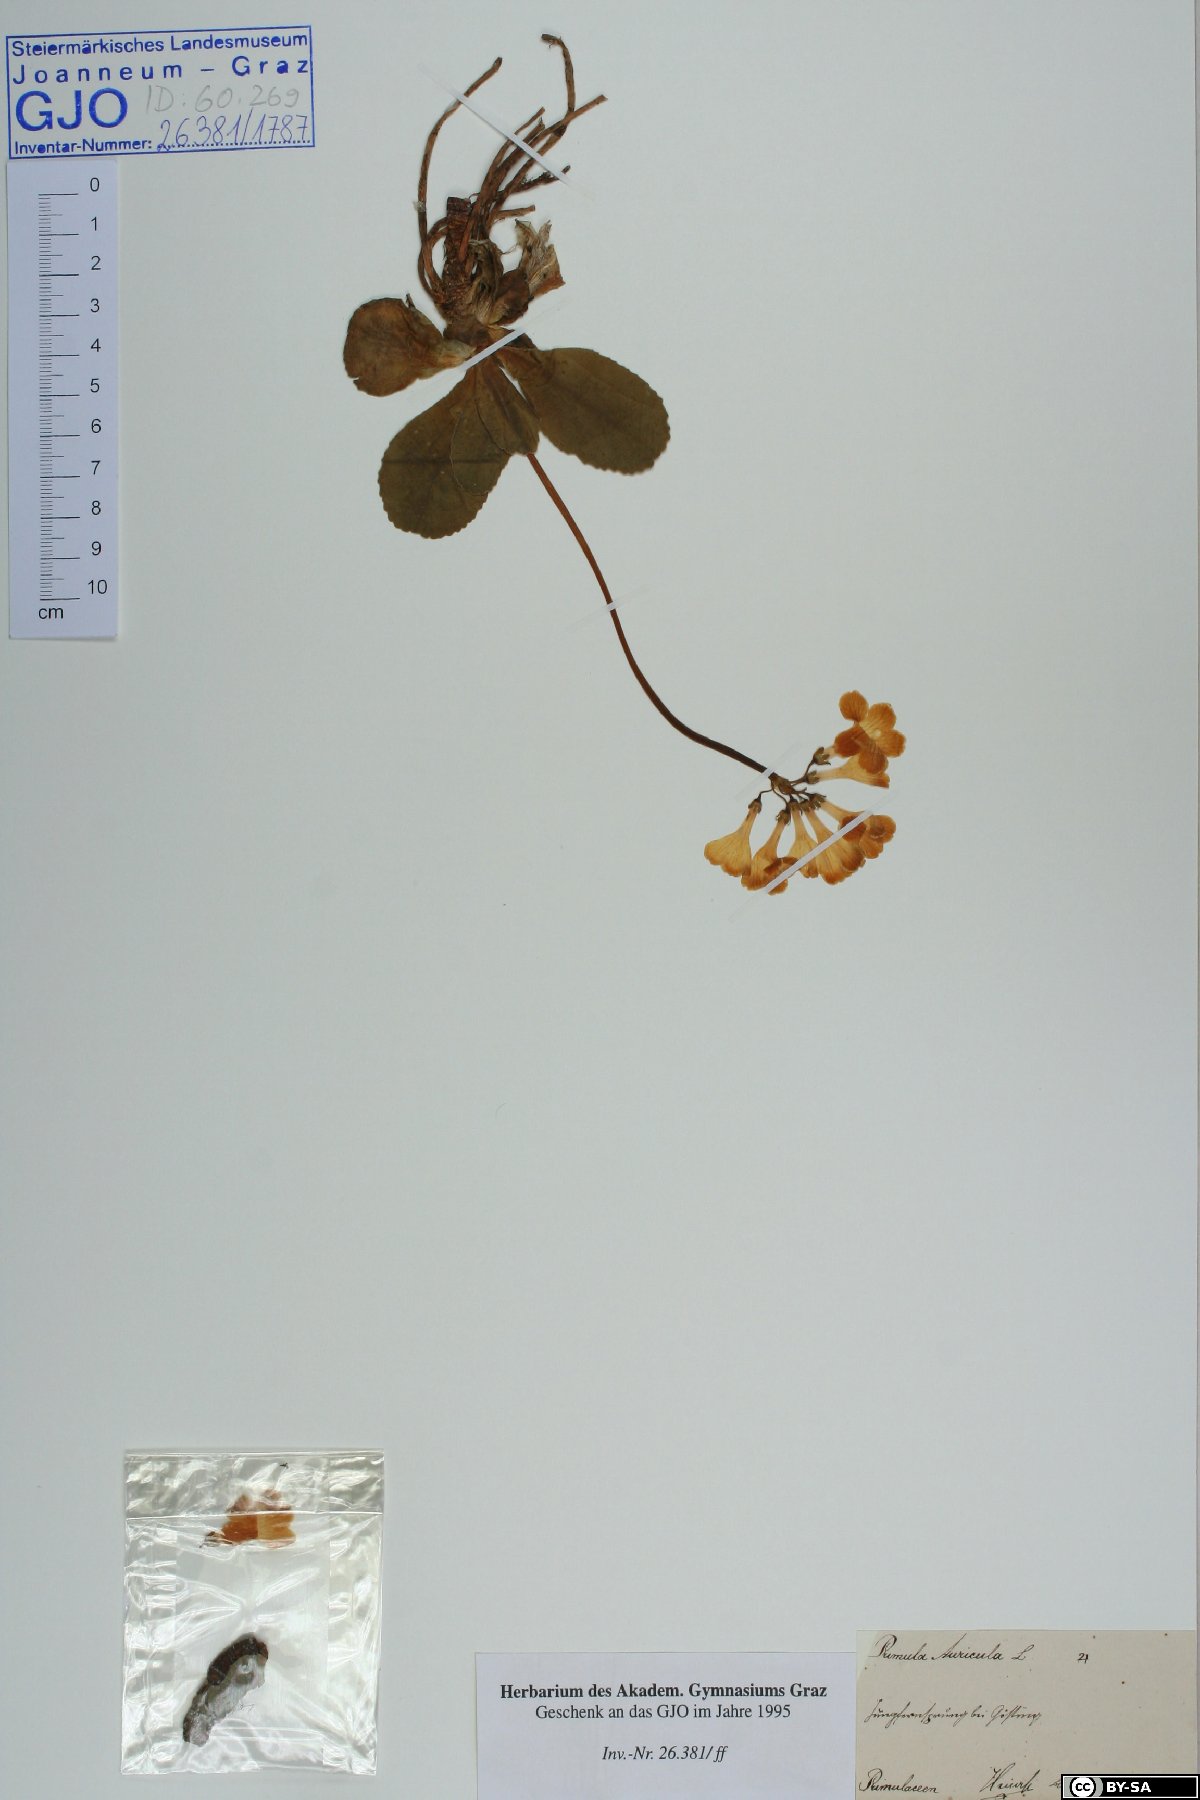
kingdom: Plantae
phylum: Tracheophyta
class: Magnoliopsida
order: Ericales
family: Primulaceae
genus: Primula
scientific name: Primula auricula
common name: Auricula
